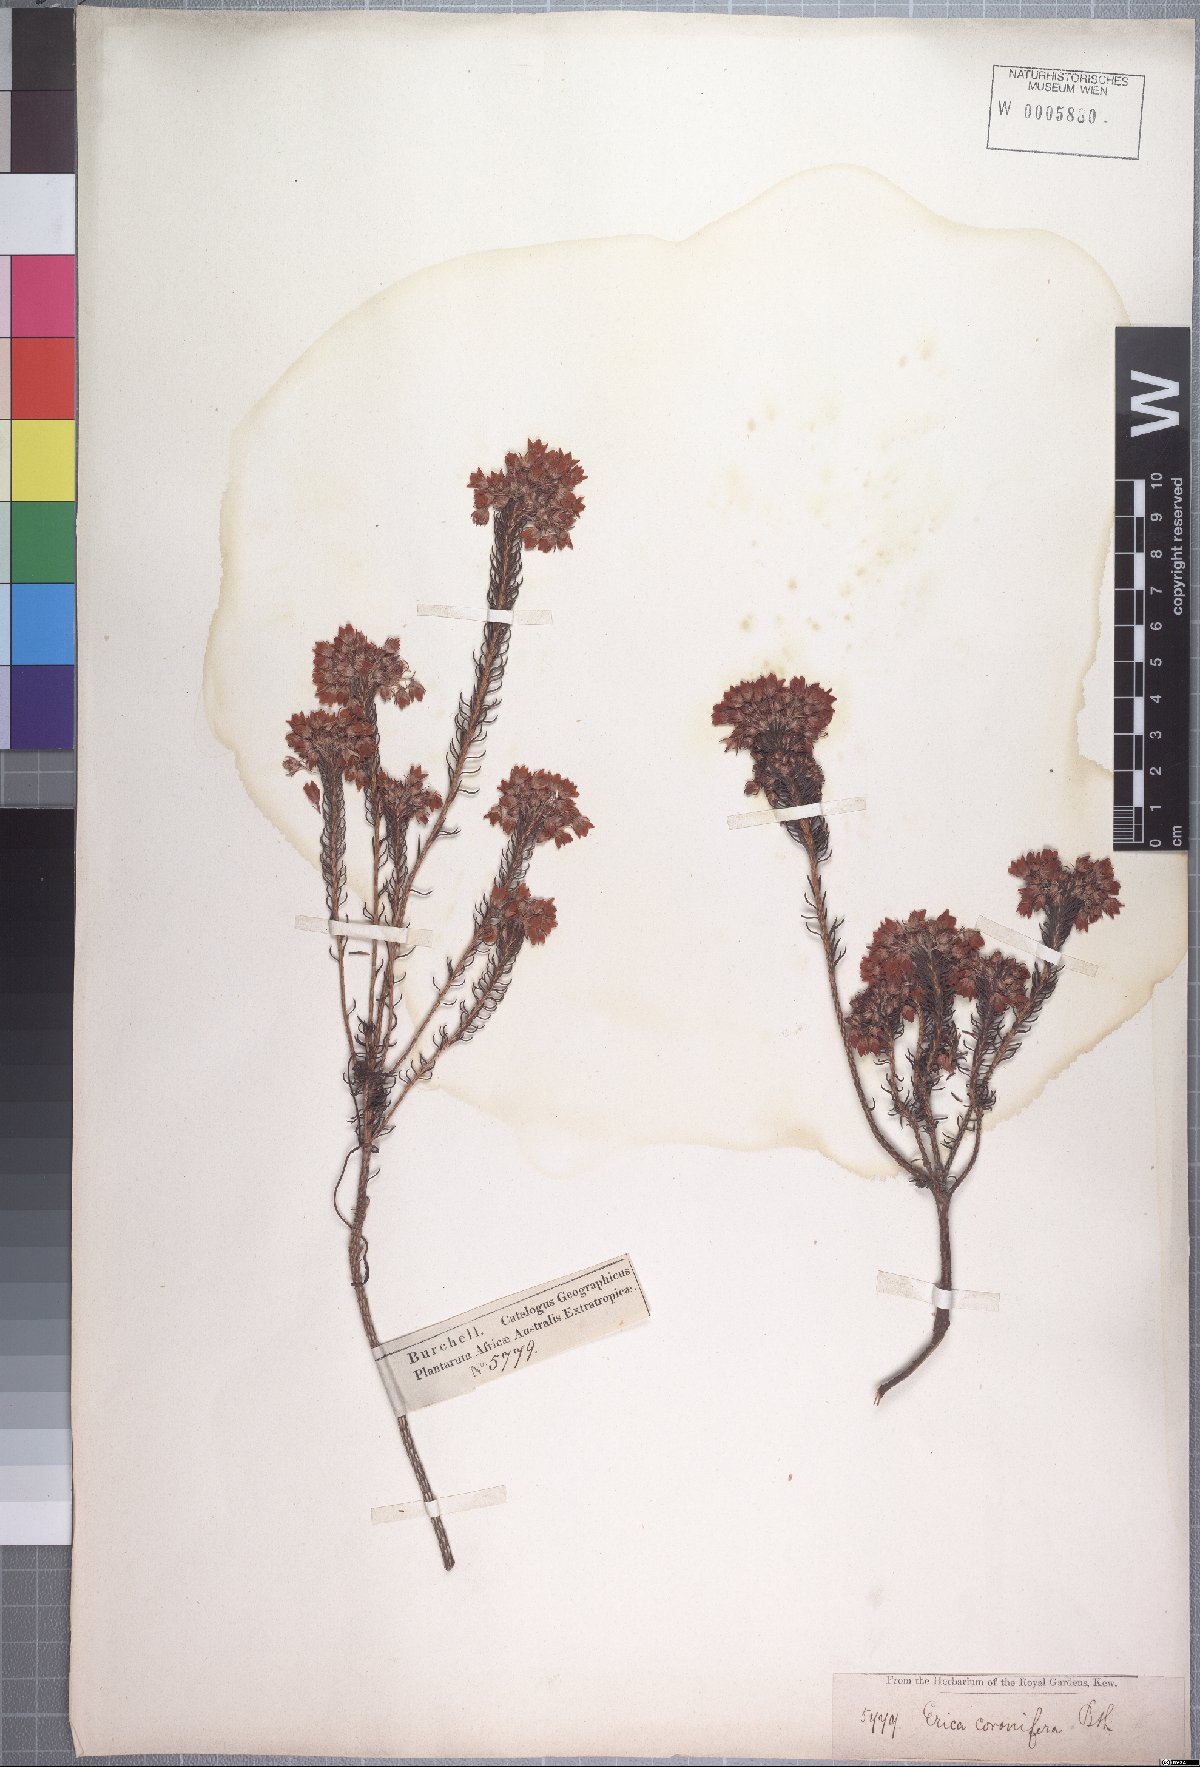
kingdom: Plantae
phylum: Tracheophyta
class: Magnoliopsida
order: Ericales
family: Ericaceae
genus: Erica
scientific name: Erica cubica
